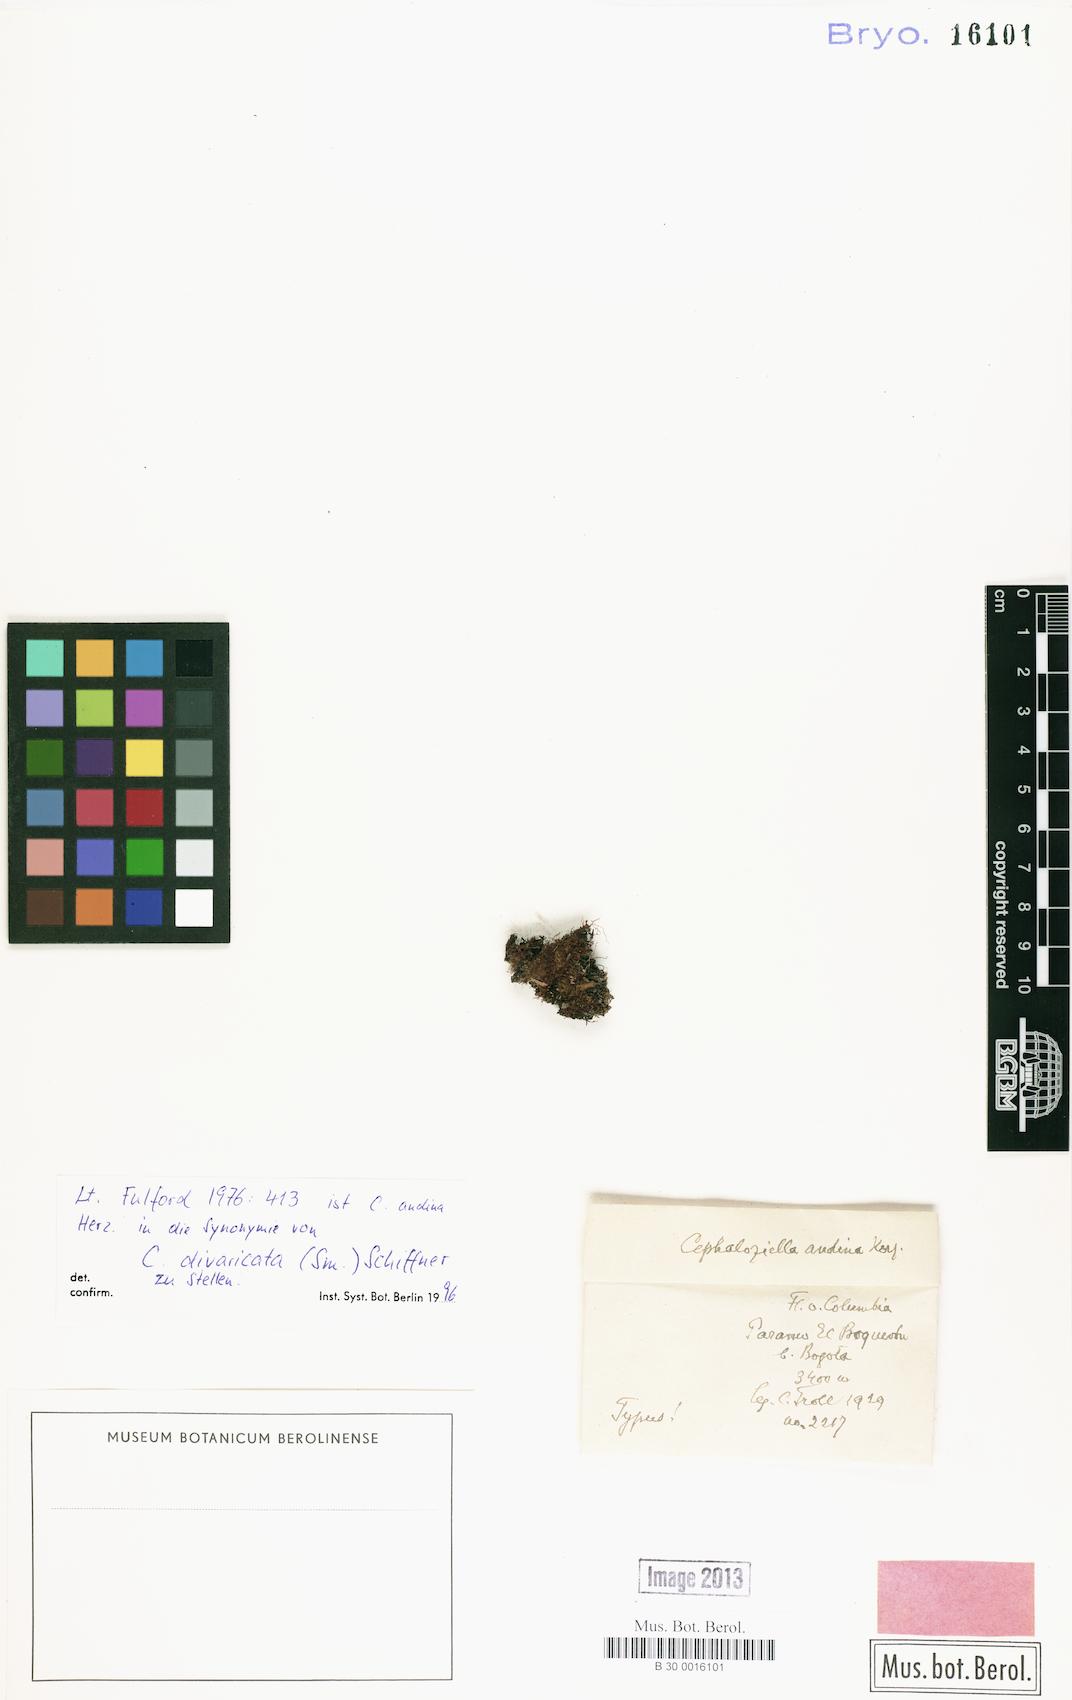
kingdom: Plantae
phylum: Marchantiophyta
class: Jungermanniopsida
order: Jungermanniales
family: Cephaloziellaceae
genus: Cephaloziella
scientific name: Cephaloziella divaricata
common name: Spreading threadwort
